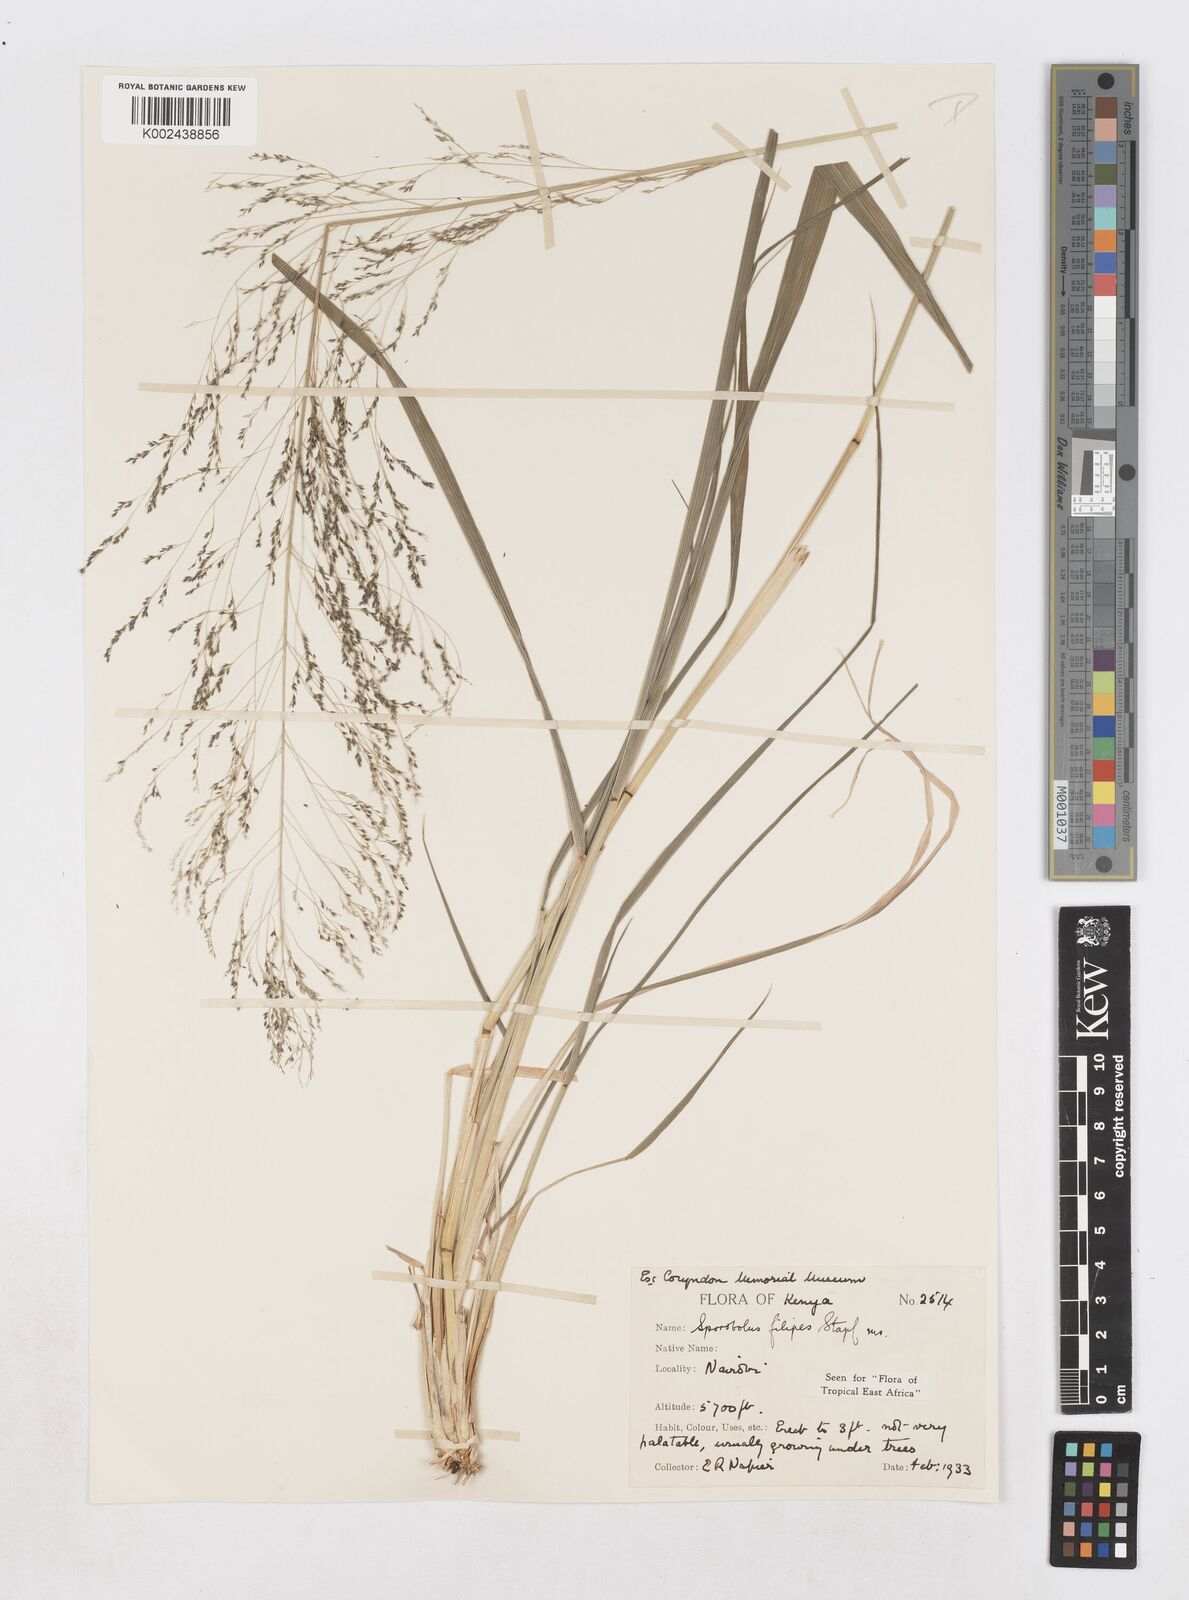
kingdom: Plantae
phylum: Tracheophyta
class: Liliopsida
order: Poales
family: Poaceae
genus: Sporobolus
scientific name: Sporobolus agrostoides
